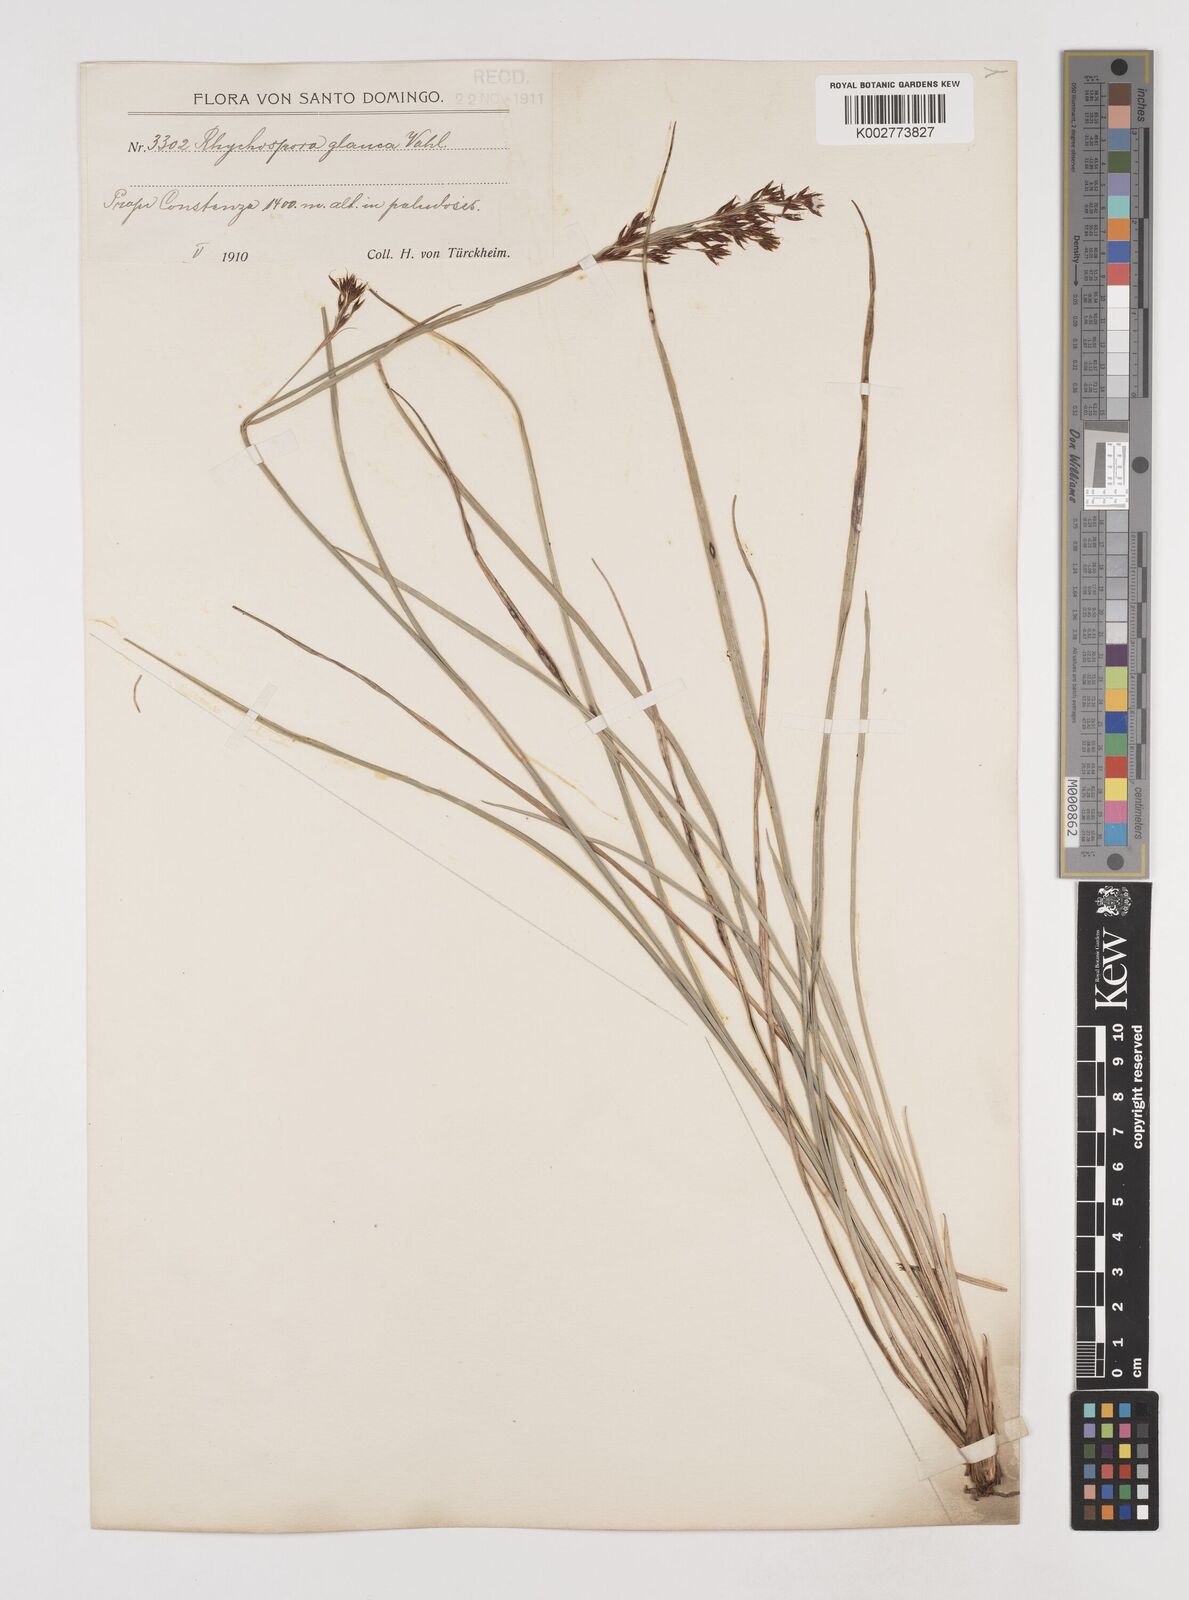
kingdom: Plantae
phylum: Tracheophyta
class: Liliopsida
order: Poales
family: Cyperaceae
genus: Rhynchospora
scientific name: Rhynchospora rugosa
